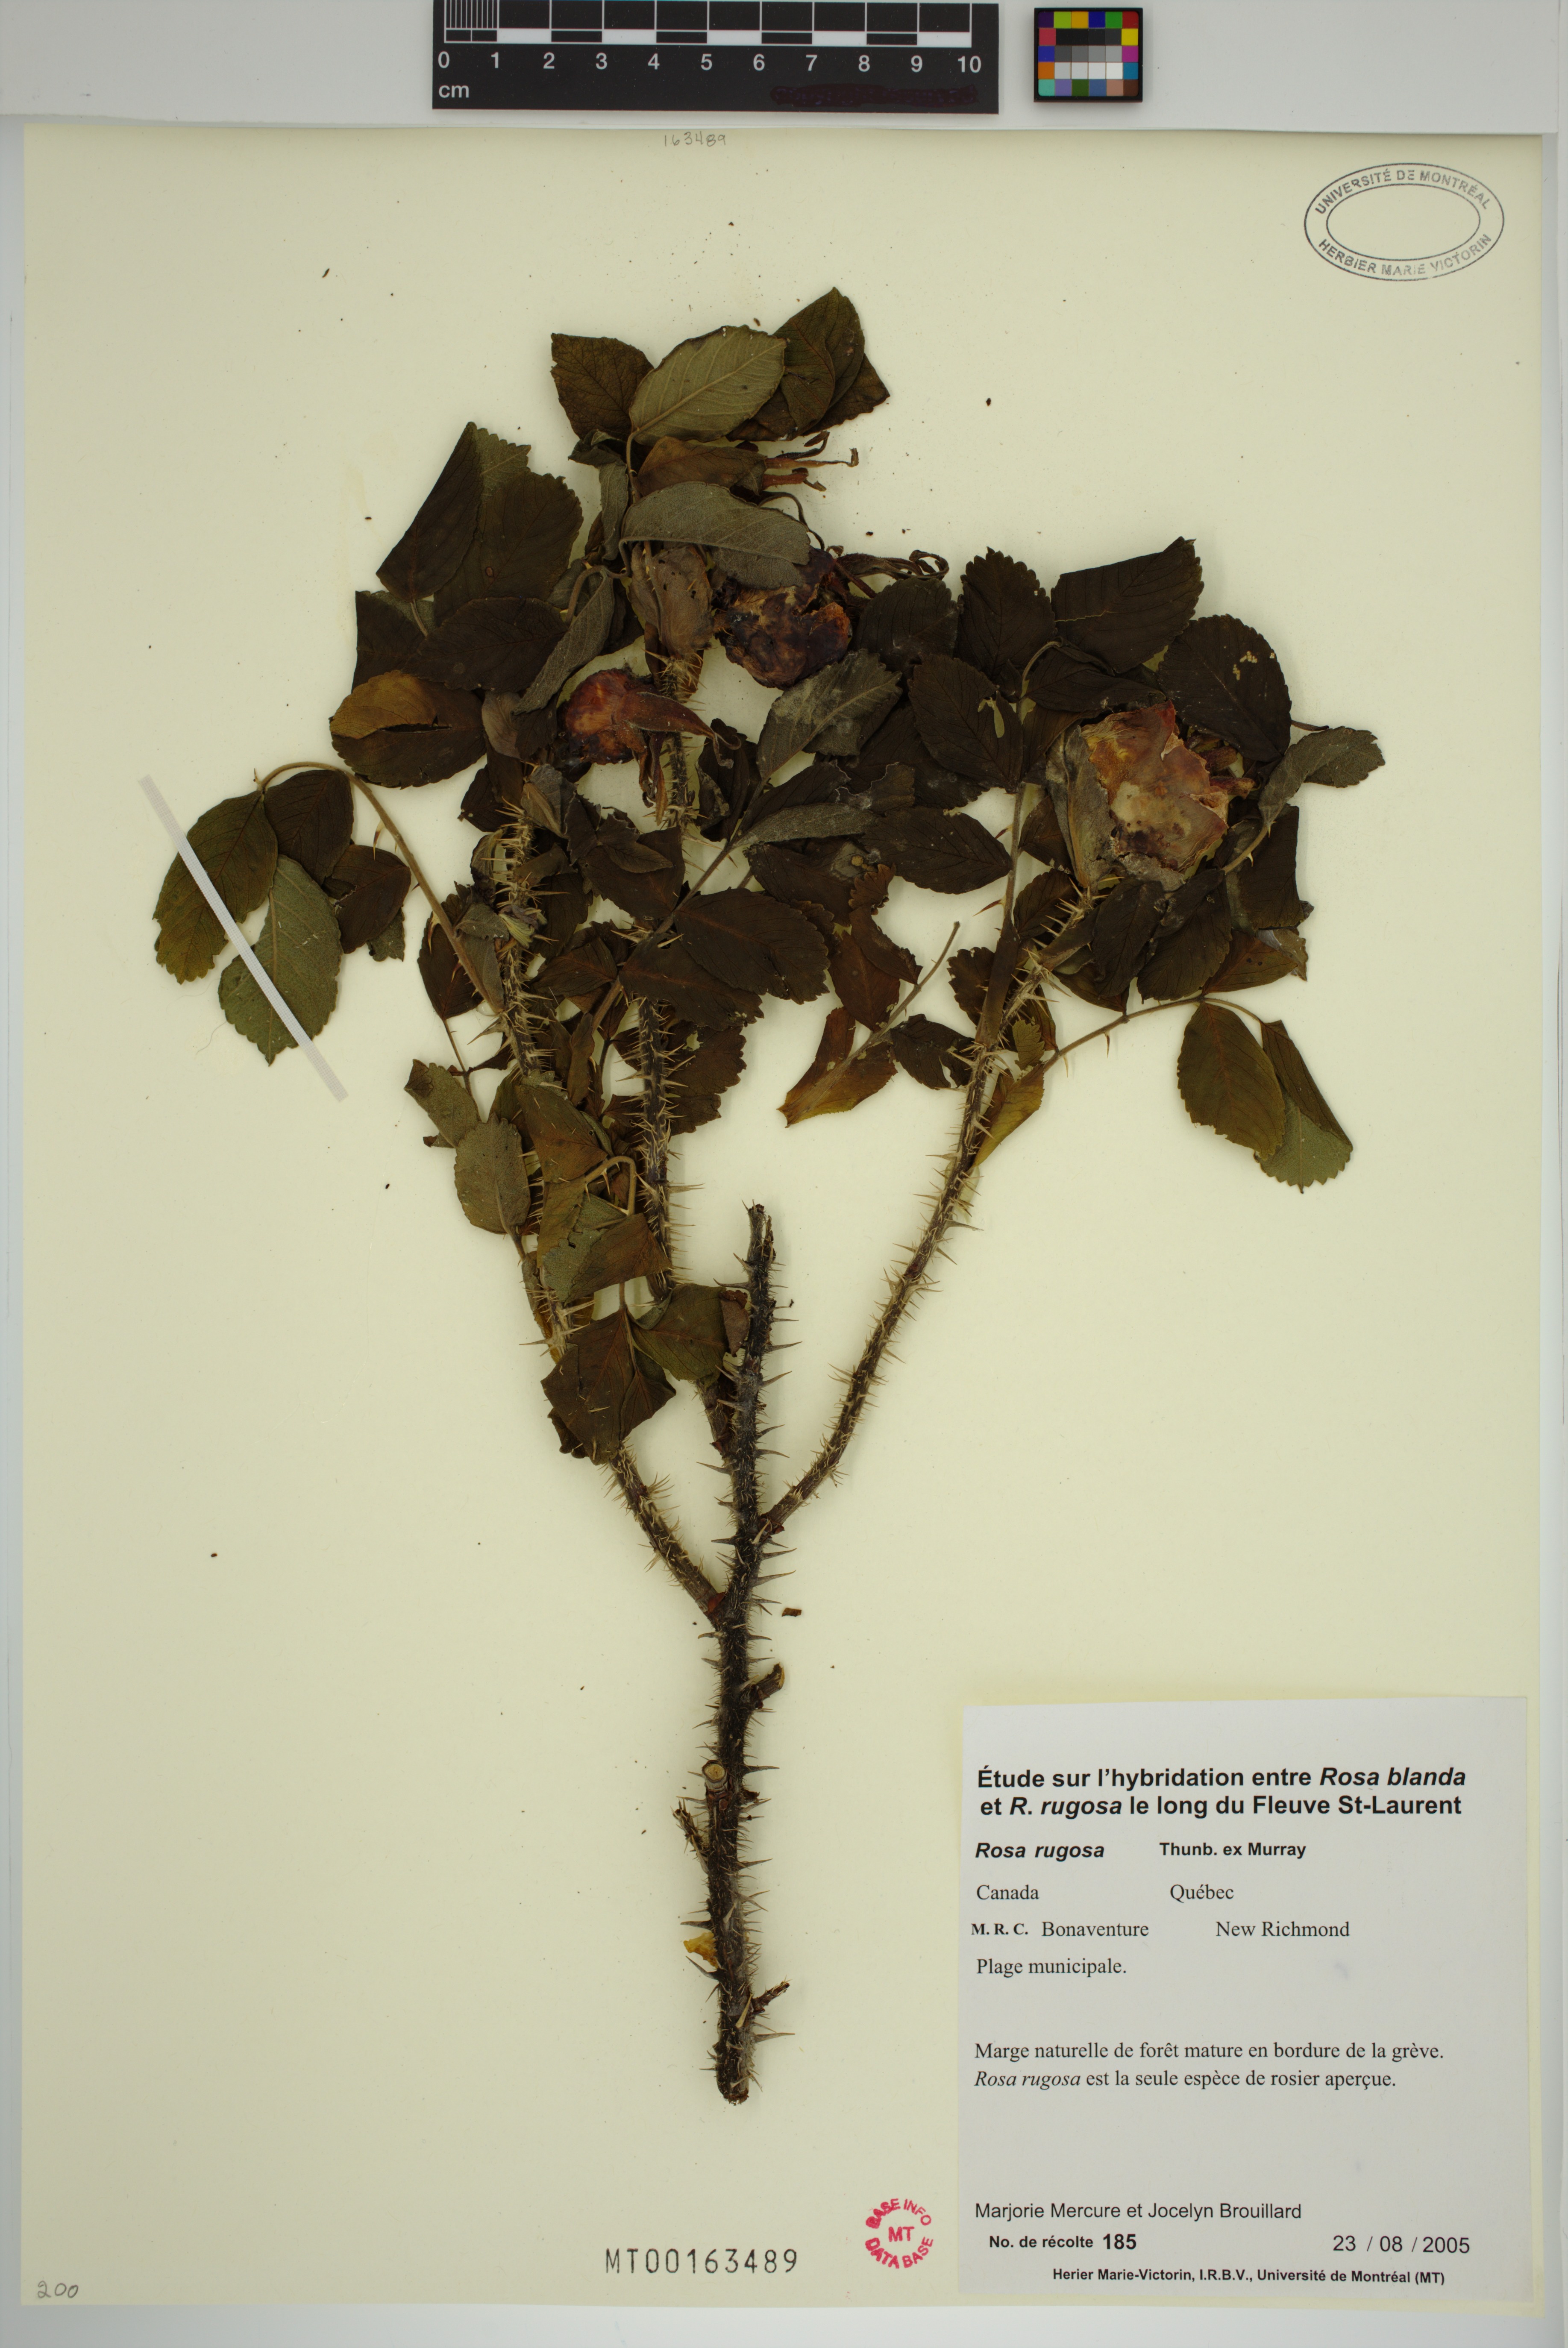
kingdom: Plantae
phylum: Tracheophyta
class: Magnoliopsida
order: Rosales
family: Rosaceae
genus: Rosa
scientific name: Rosa rugosa
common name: Japanese rose
